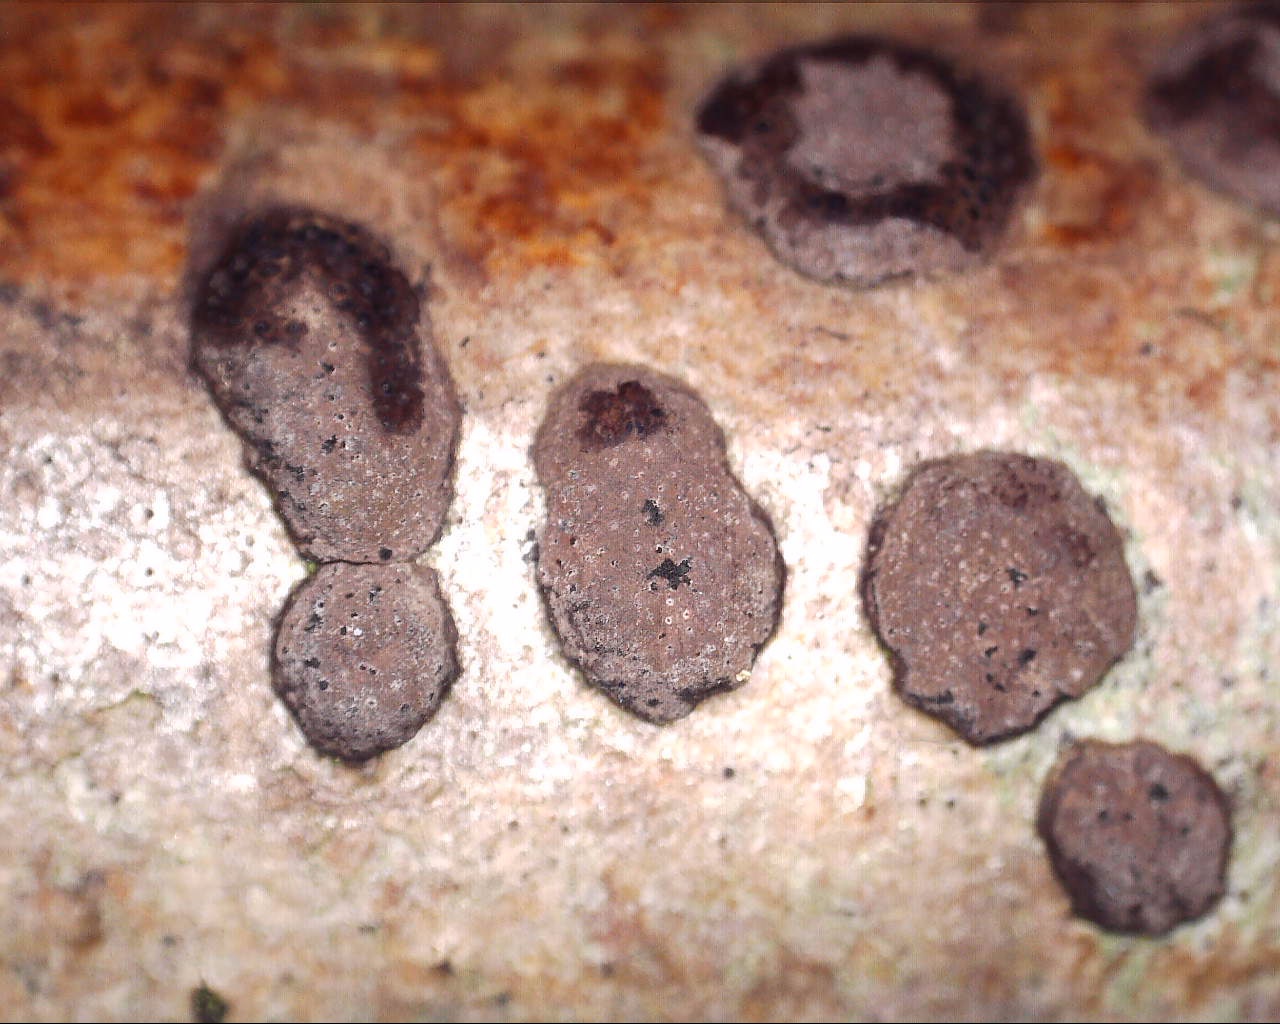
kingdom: Fungi
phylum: Ascomycota
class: Sordariomycetes
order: Xylariales
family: Hypoxylaceae
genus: Hypoxylon
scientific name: Hypoxylon fuscum
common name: kegleformet kulbær
